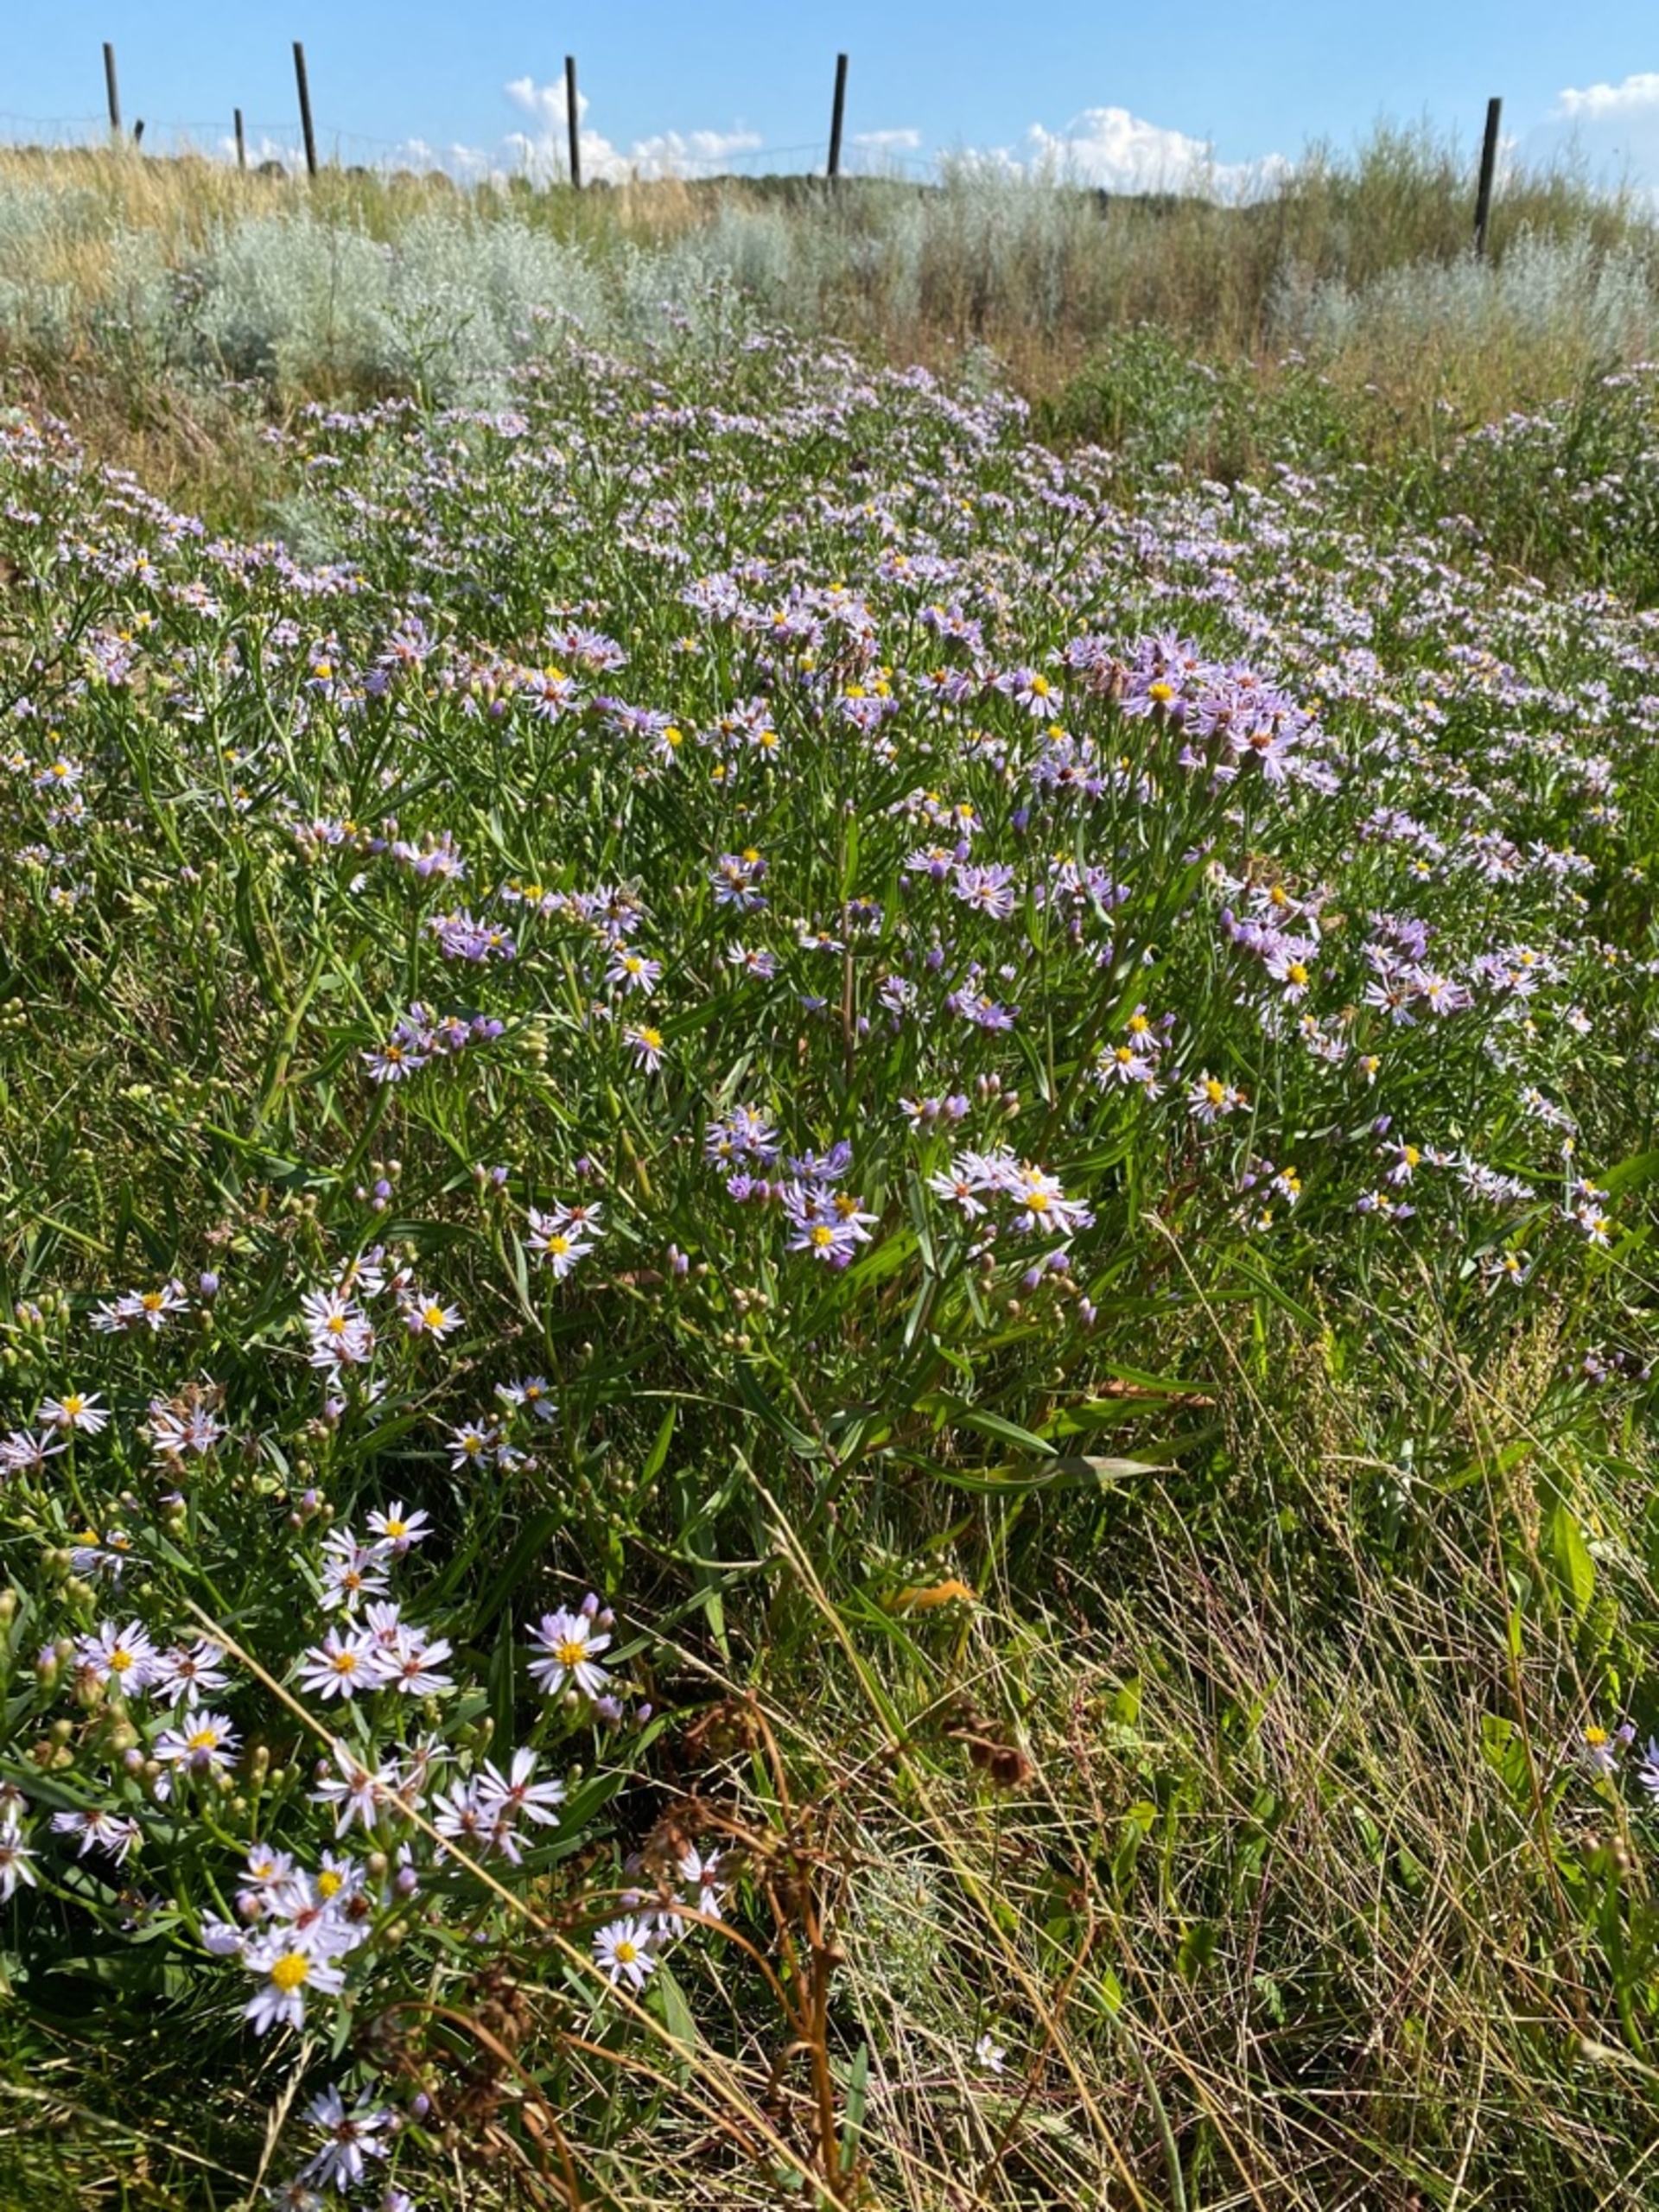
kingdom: Plantae
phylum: Tracheophyta
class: Magnoliopsida
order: Asterales
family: Asteraceae
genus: Tripolium
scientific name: Tripolium pannonicum
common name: Strandasters
